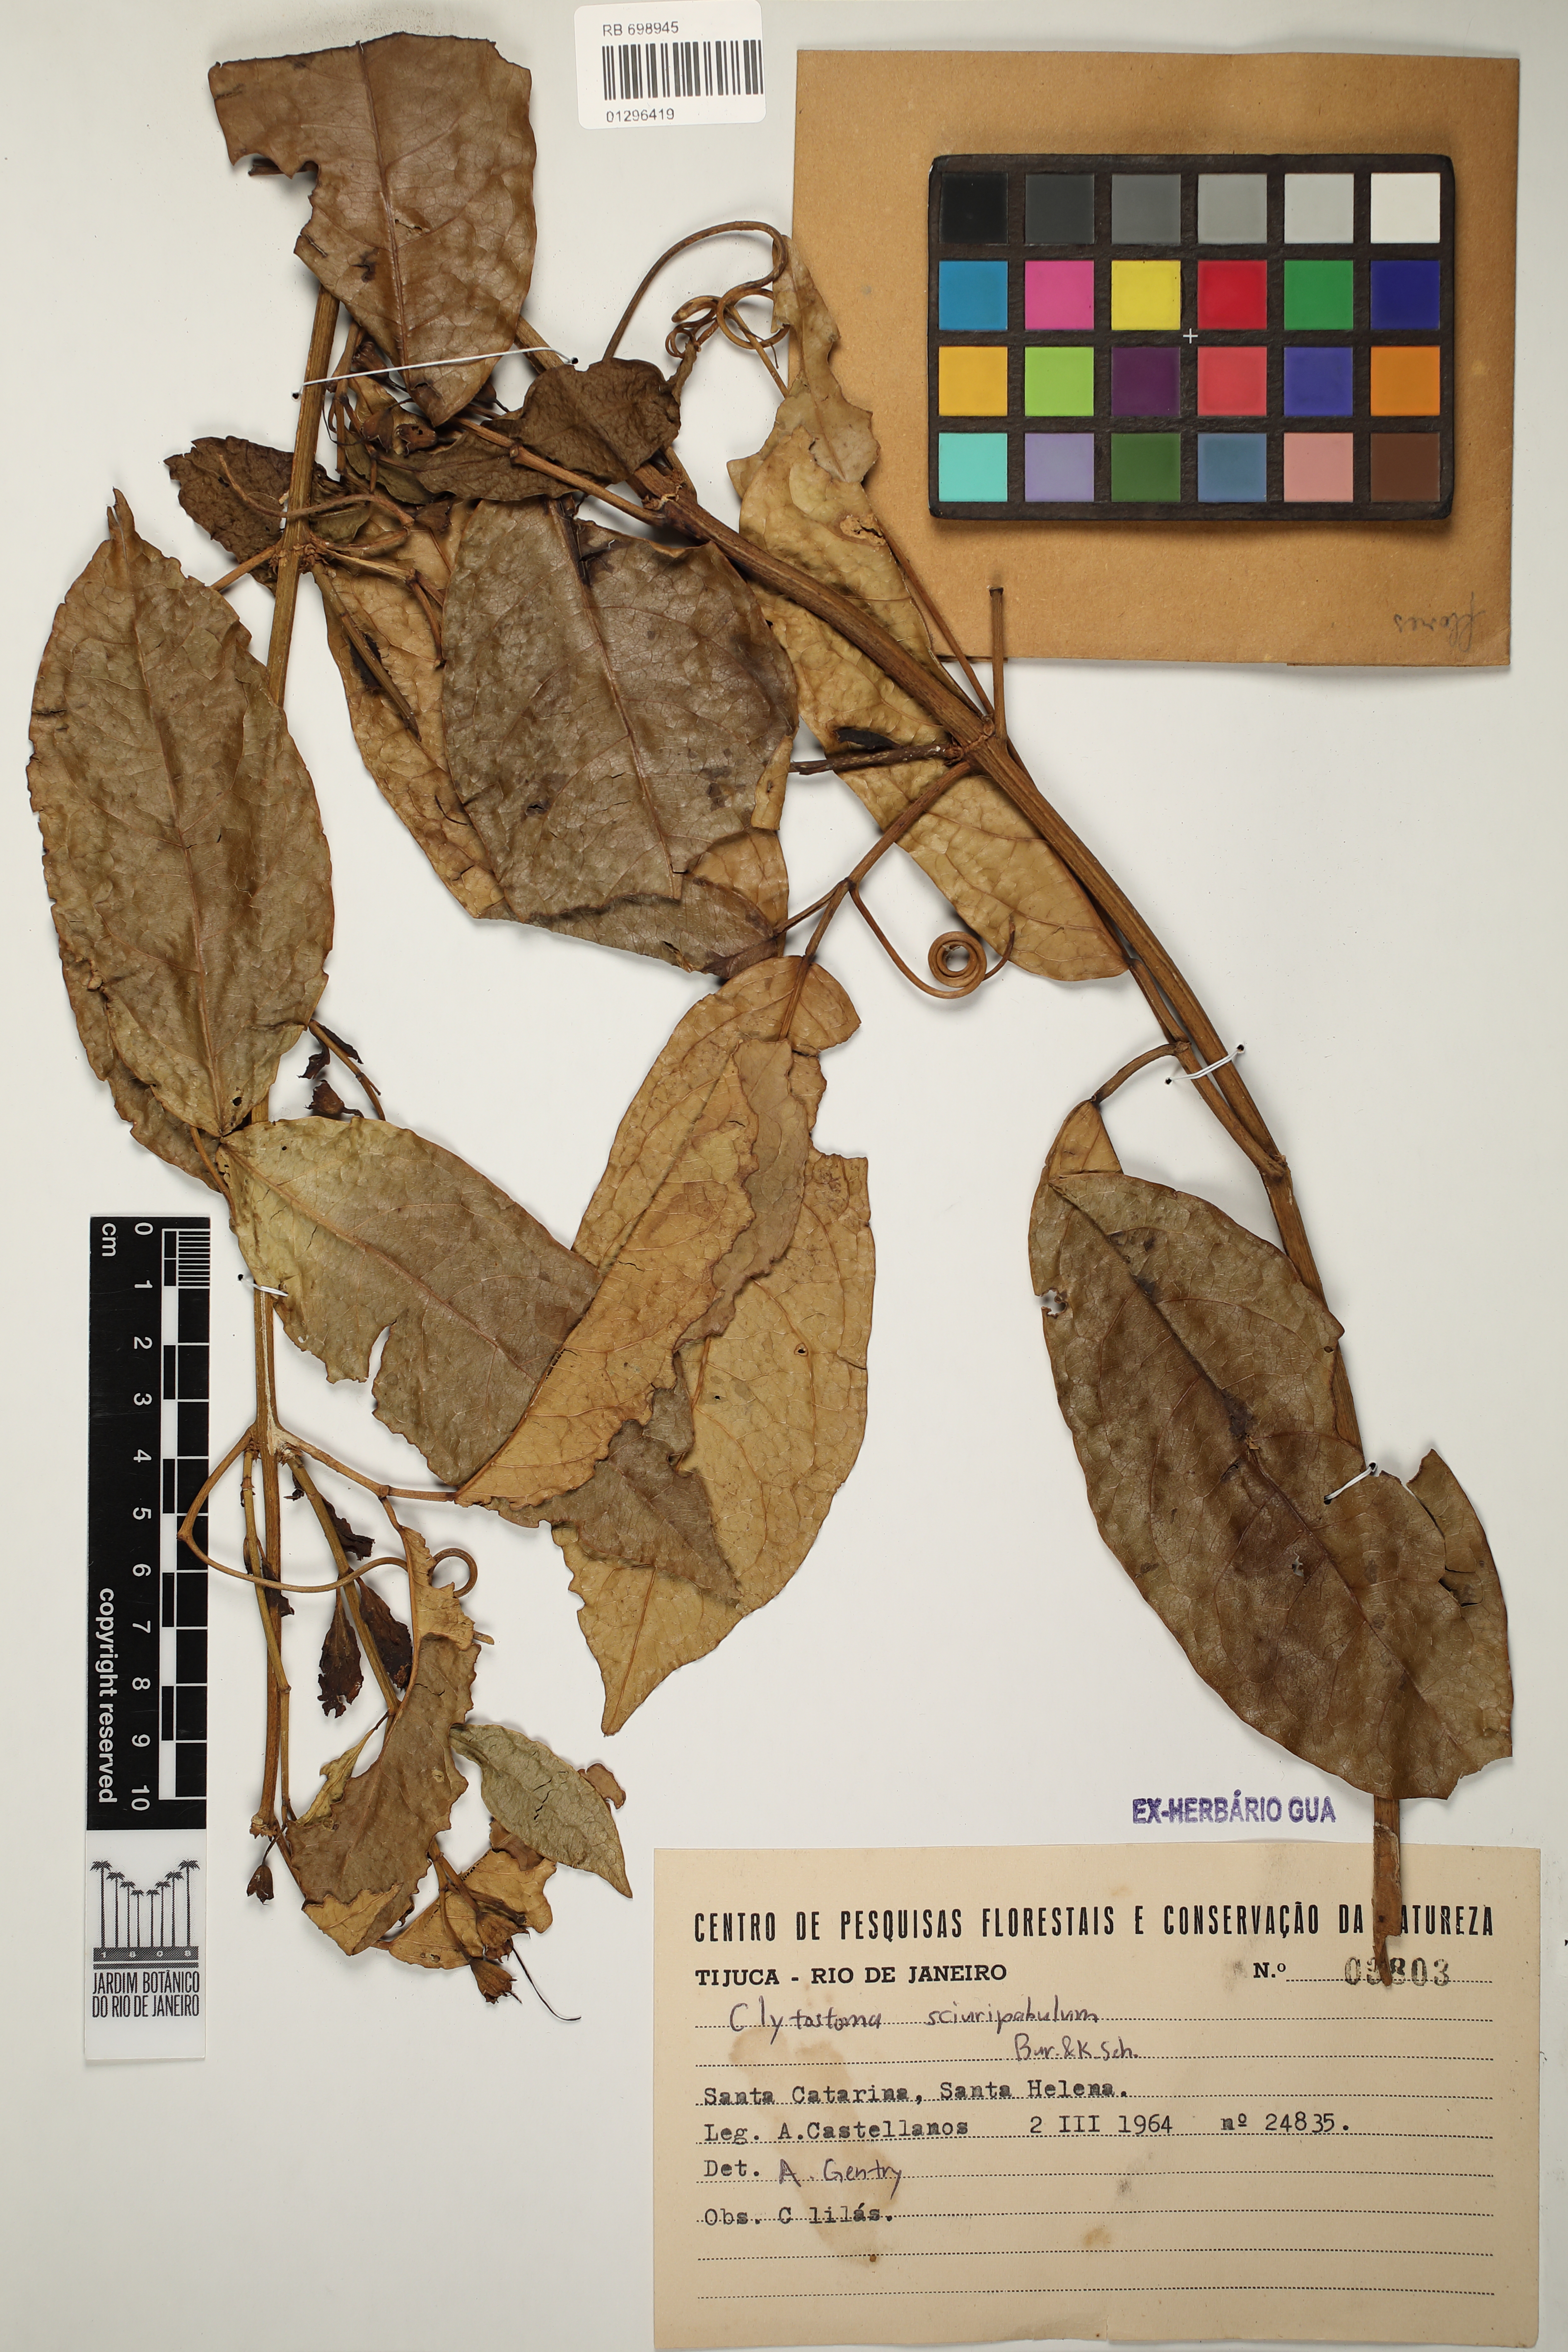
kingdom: Plantae
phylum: Tracheophyta
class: Magnoliopsida
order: Lamiales
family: Bignoniaceae
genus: Bignonia
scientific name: Bignonia sciruipabula
